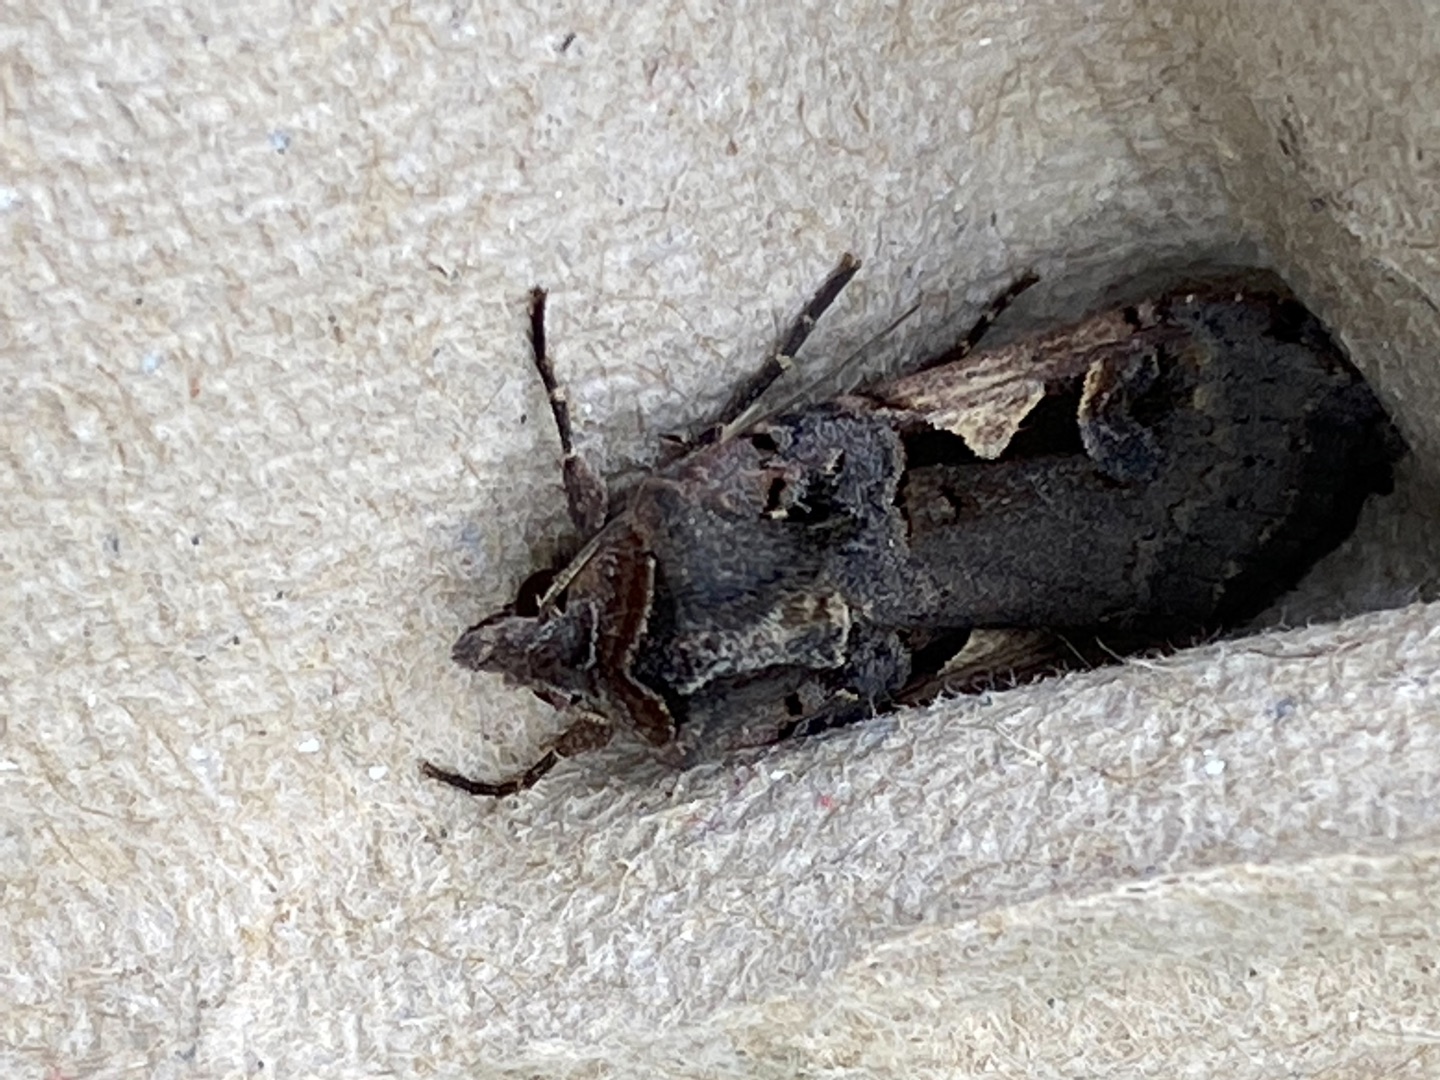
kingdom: Animalia
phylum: Arthropoda
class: Insecta
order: Lepidoptera
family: Noctuidae
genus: Xestia
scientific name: Xestia c-nigrum
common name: Det sorte c
